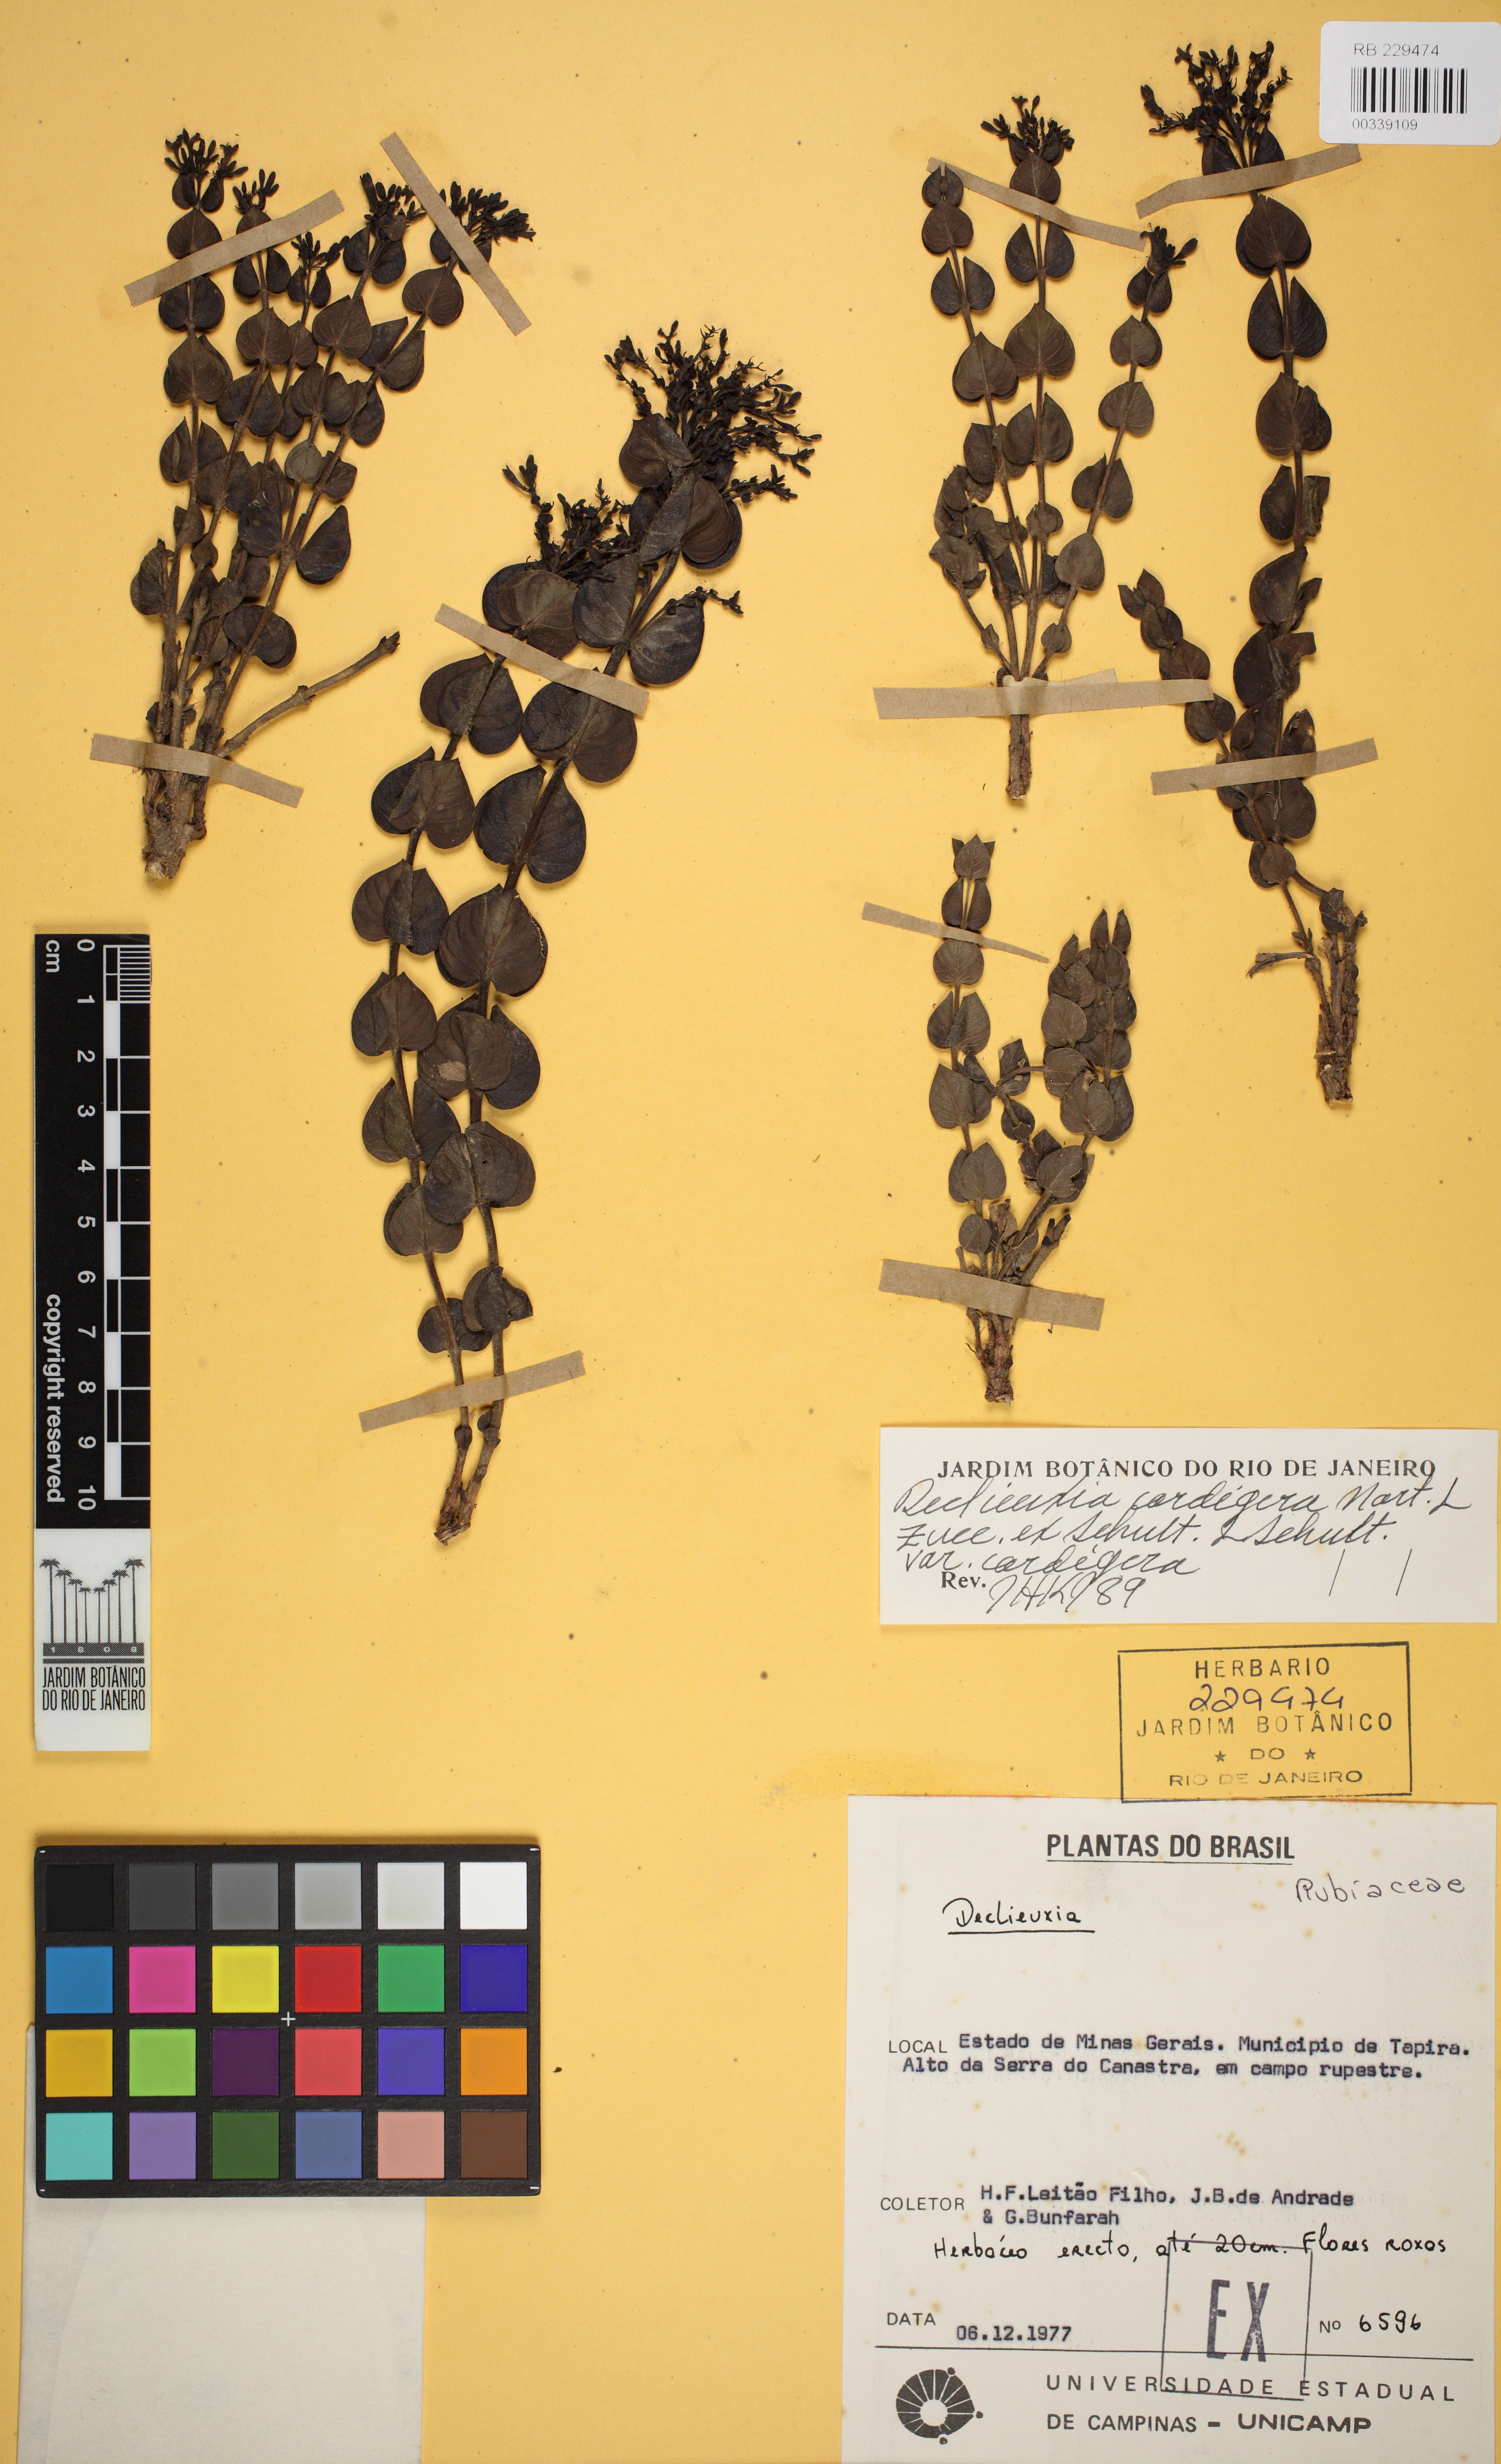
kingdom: Plantae
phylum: Tracheophyta
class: Magnoliopsida
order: Gentianales
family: Rubiaceae
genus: Declieuxia
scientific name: Declieuxia cordigera
